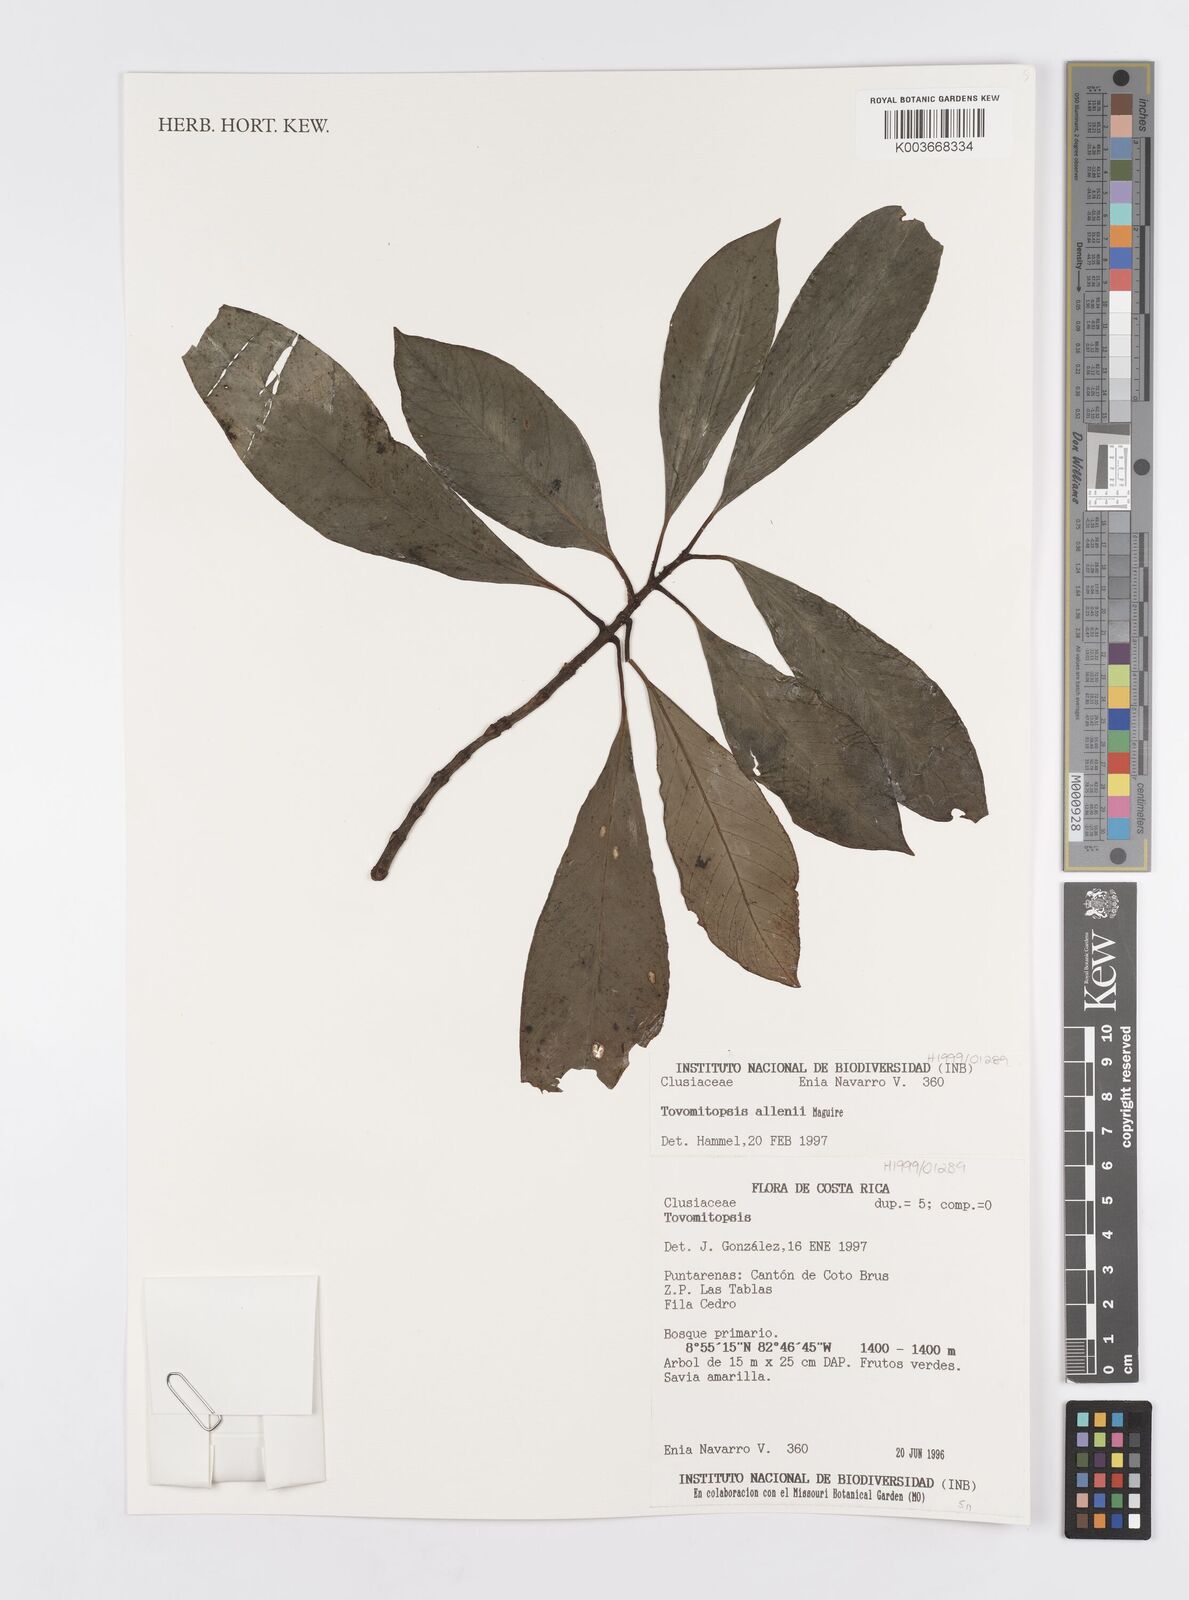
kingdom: Plantae
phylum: Tracheophyta
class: Magnoliopsida
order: Malpighiales
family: Clusiaceae
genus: Chrysochlamys
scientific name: Chrysochlamys allenii
